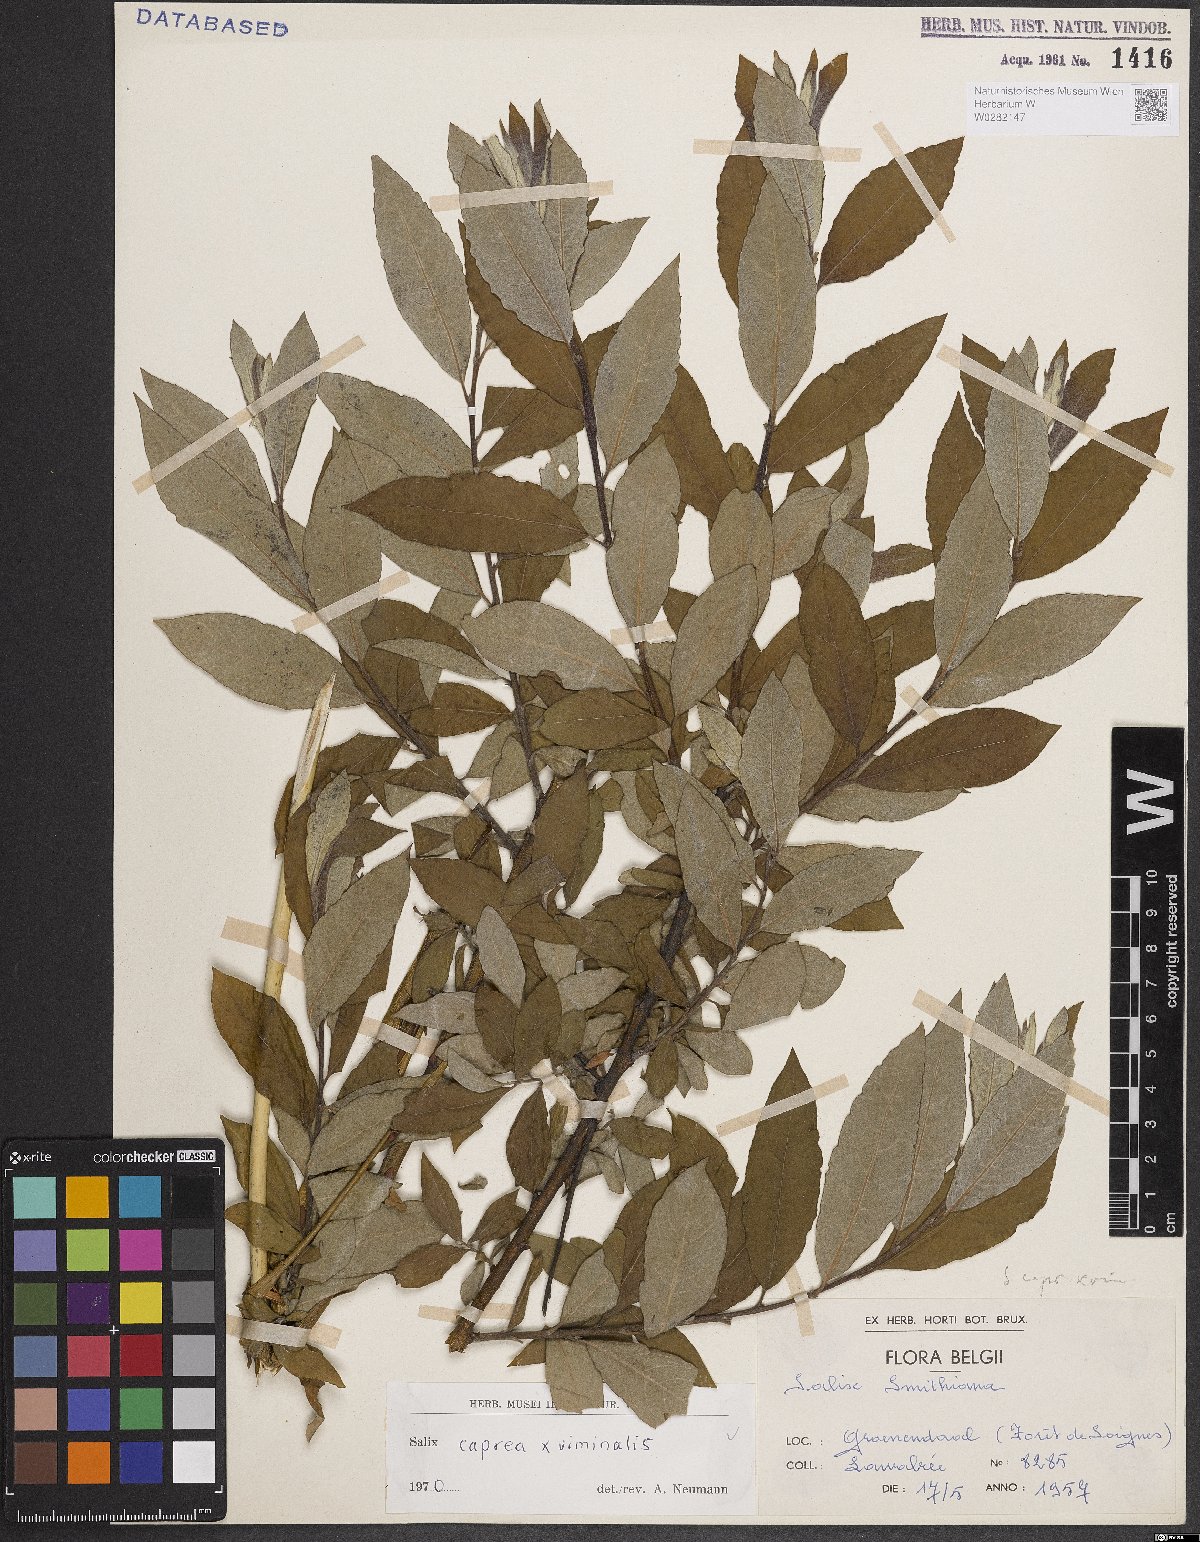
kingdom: Plantae
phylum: Tracheophyta
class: Magnoliopsida
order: Malpighiales
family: Salicaceae
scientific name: Salicaceae
